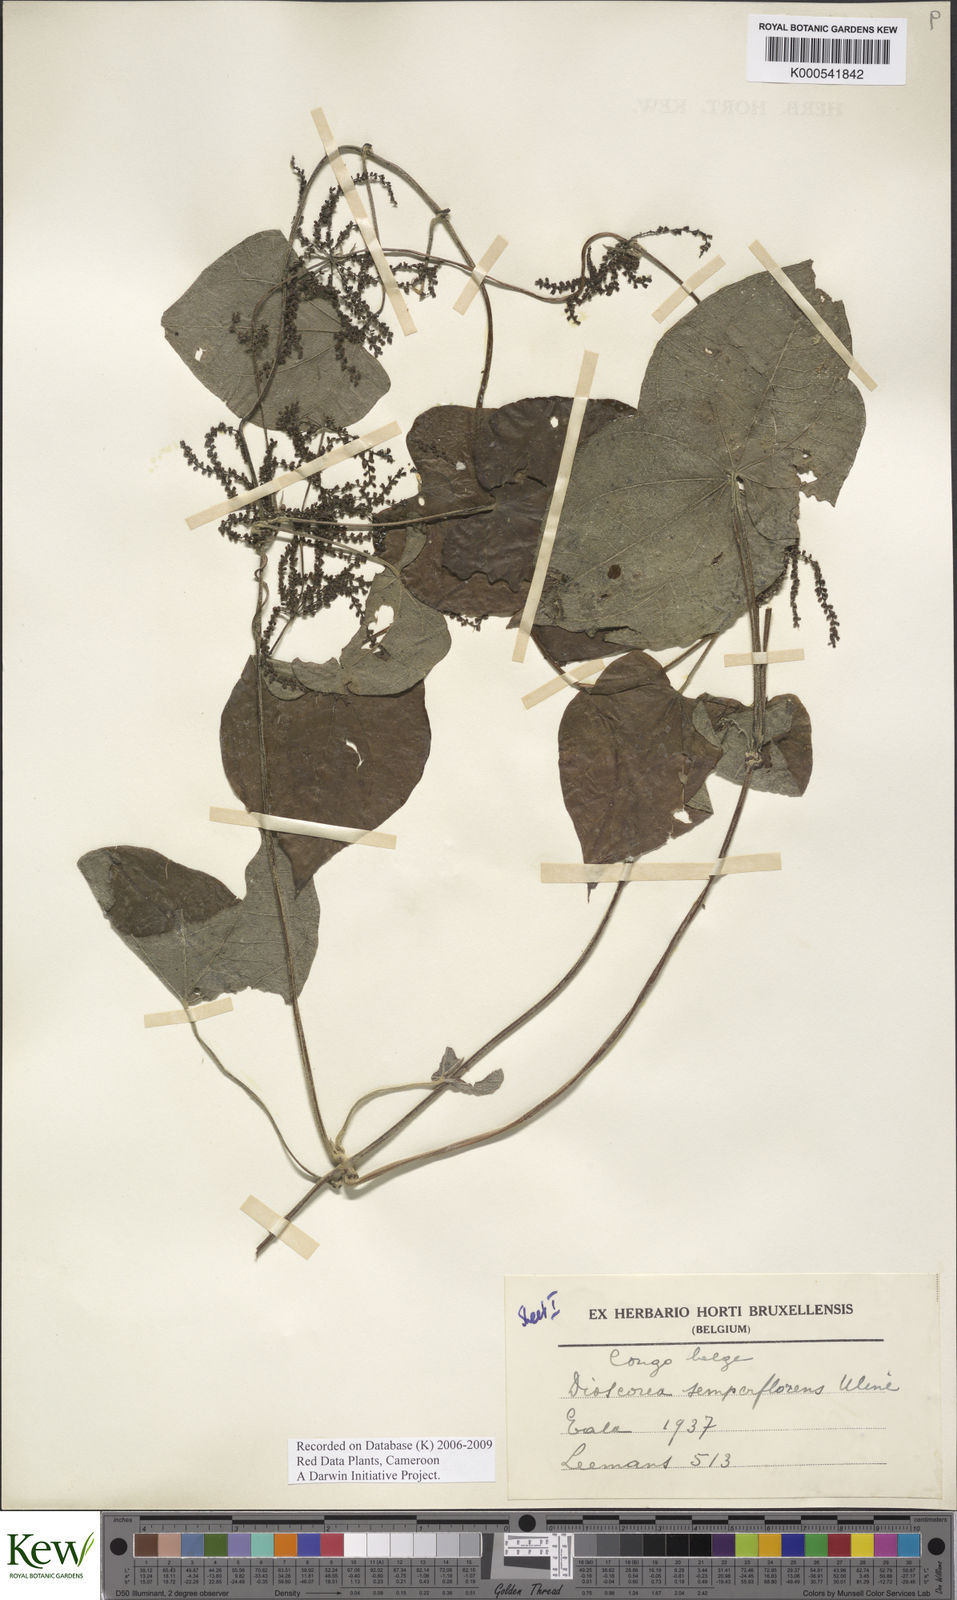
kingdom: Plantae
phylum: Tracheophyta
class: Liliopsida
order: Dioscoreales
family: Dioscoreaceae
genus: Dioscorea
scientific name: Dioscorea semperflorens
